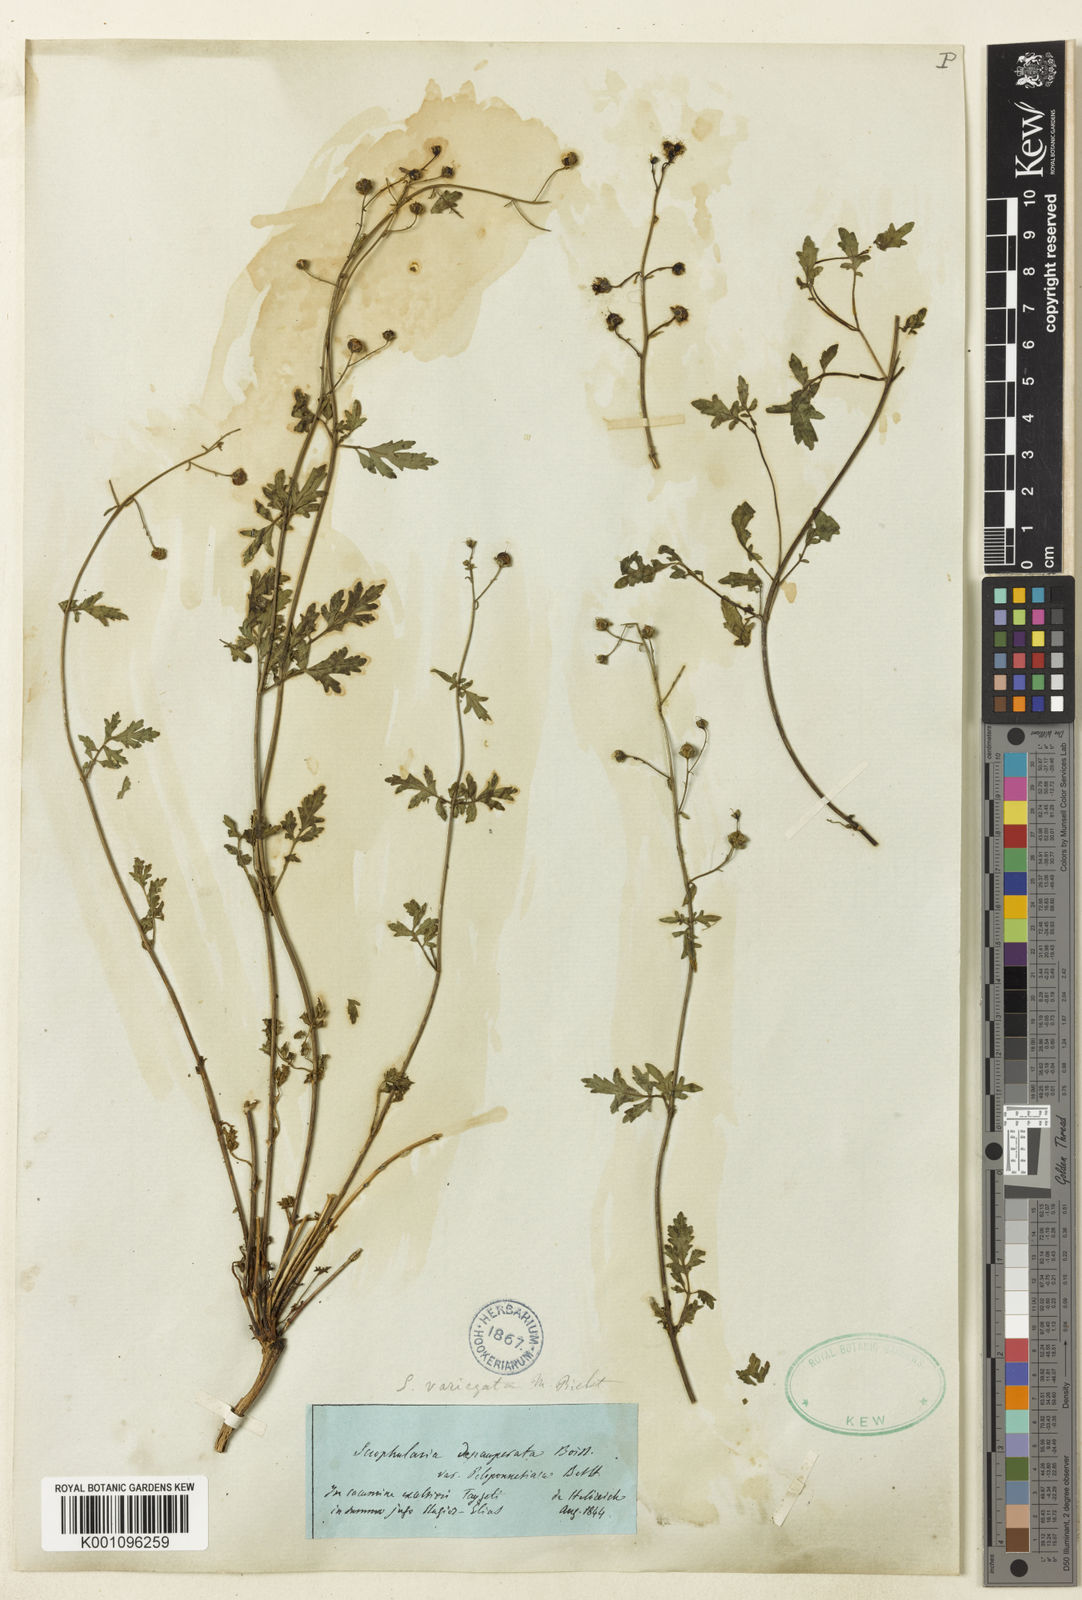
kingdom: Plantae
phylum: Tracheophyta
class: Magnoliopsida
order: Lamiales
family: Scrophulariaceae
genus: Scrophularia
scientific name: Scrophularia depauperata
